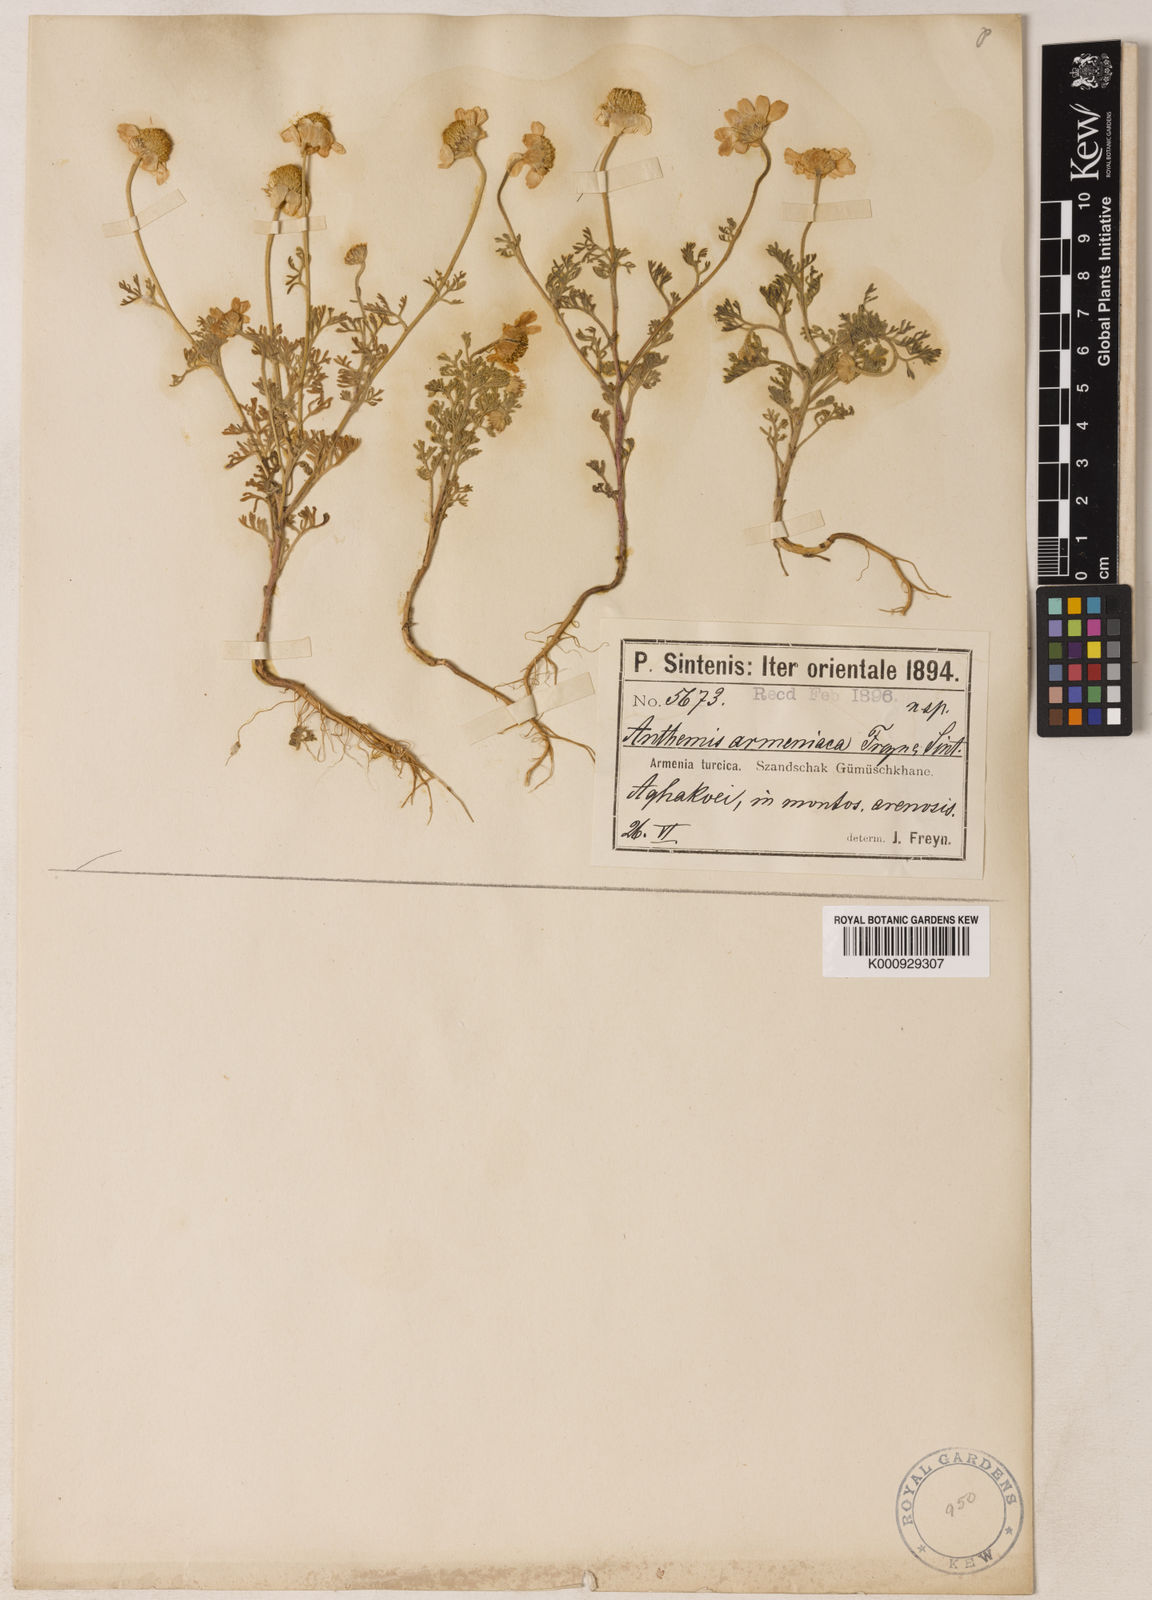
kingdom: Plantae
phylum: Tracheophyta
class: Magnoliopsida
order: Asterales
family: Asteraceae
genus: Anthemis
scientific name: Anthemis candidissima
